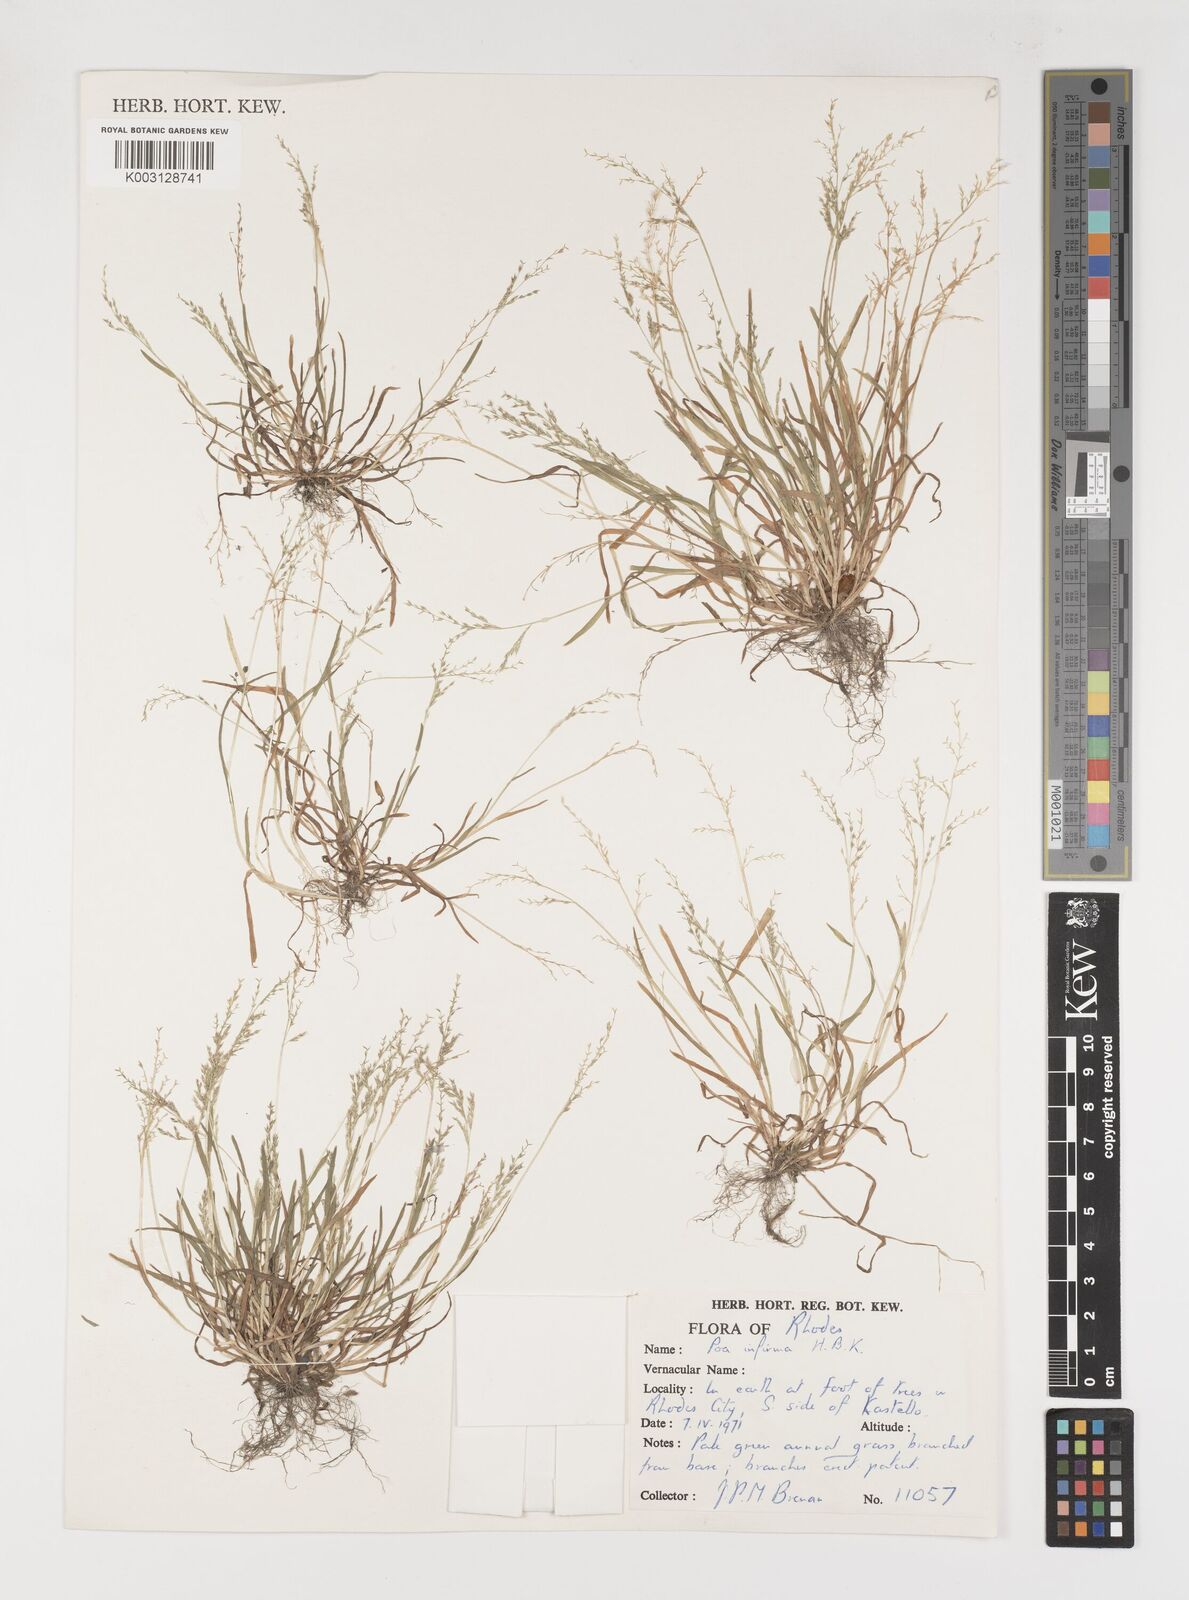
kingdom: Plantae
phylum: Tracheophyta
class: Liliopsida
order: Poales
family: Poaceae
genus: Poa
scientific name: Poa infirma
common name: Weak bluegrass
